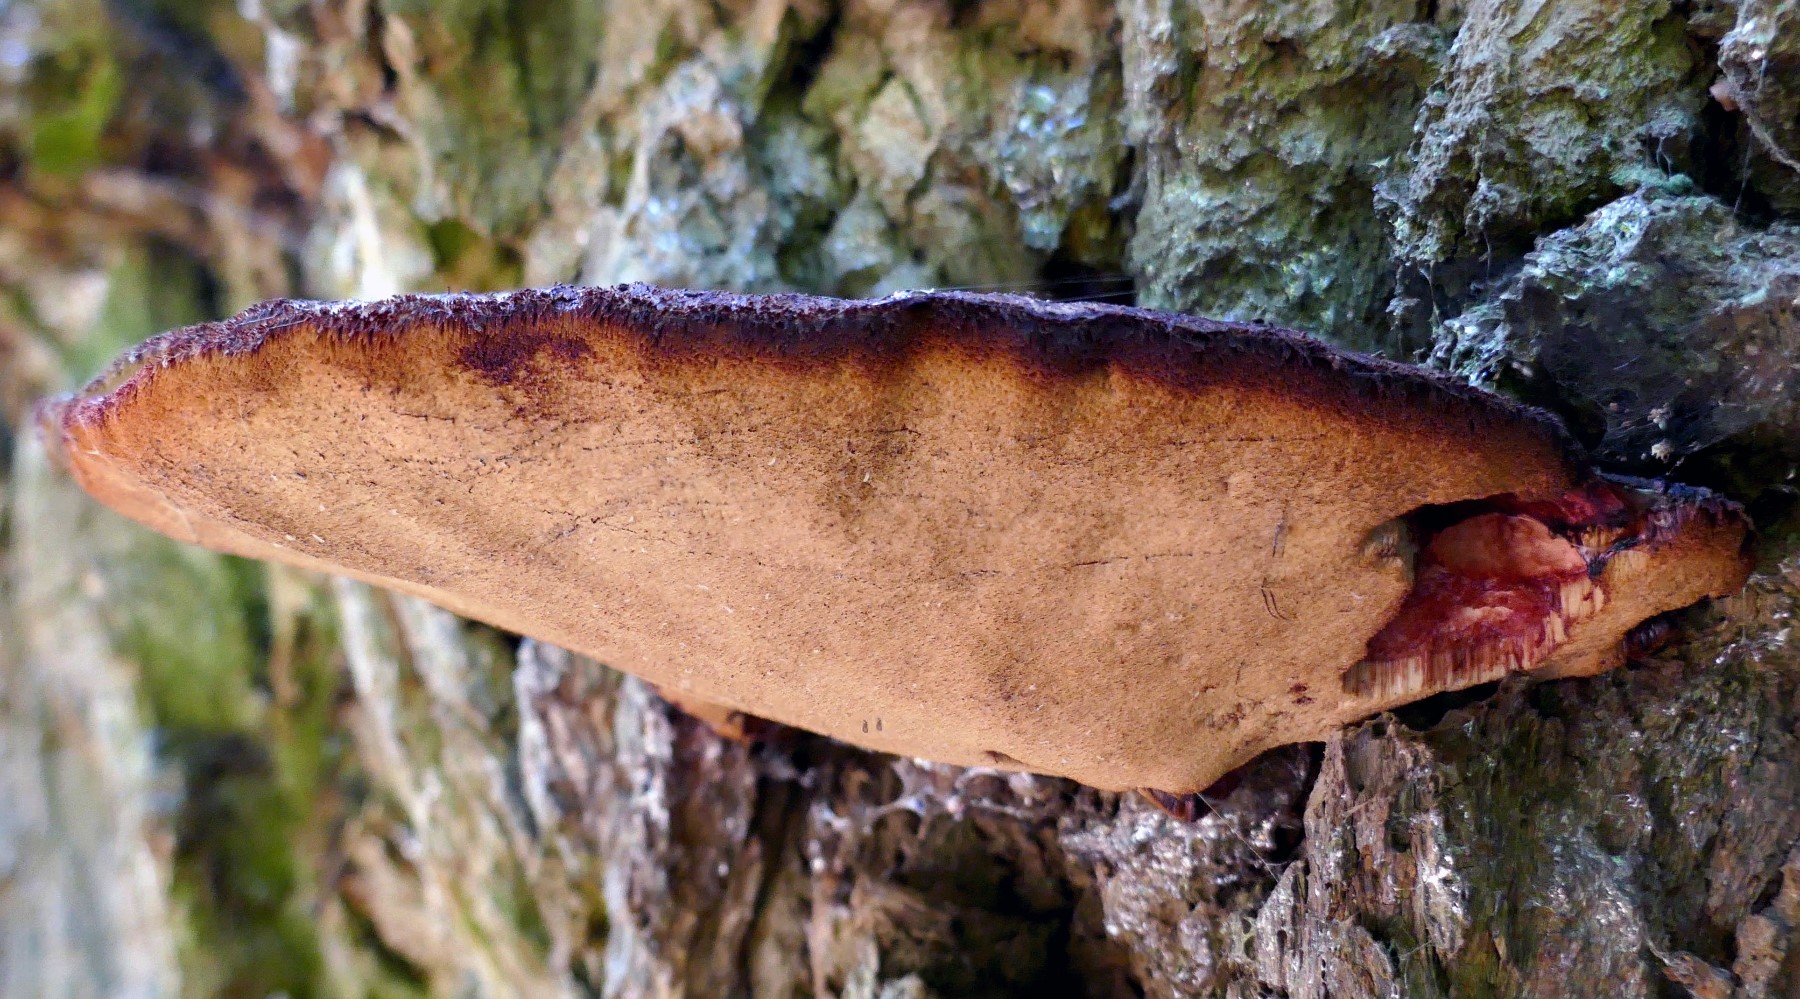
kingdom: Fungi
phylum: Basidiomycota
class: Agaricomycetes
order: Agaricales
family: Fistulinaceae
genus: Fistulina
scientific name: Fistulina hepatica
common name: oksetunge
